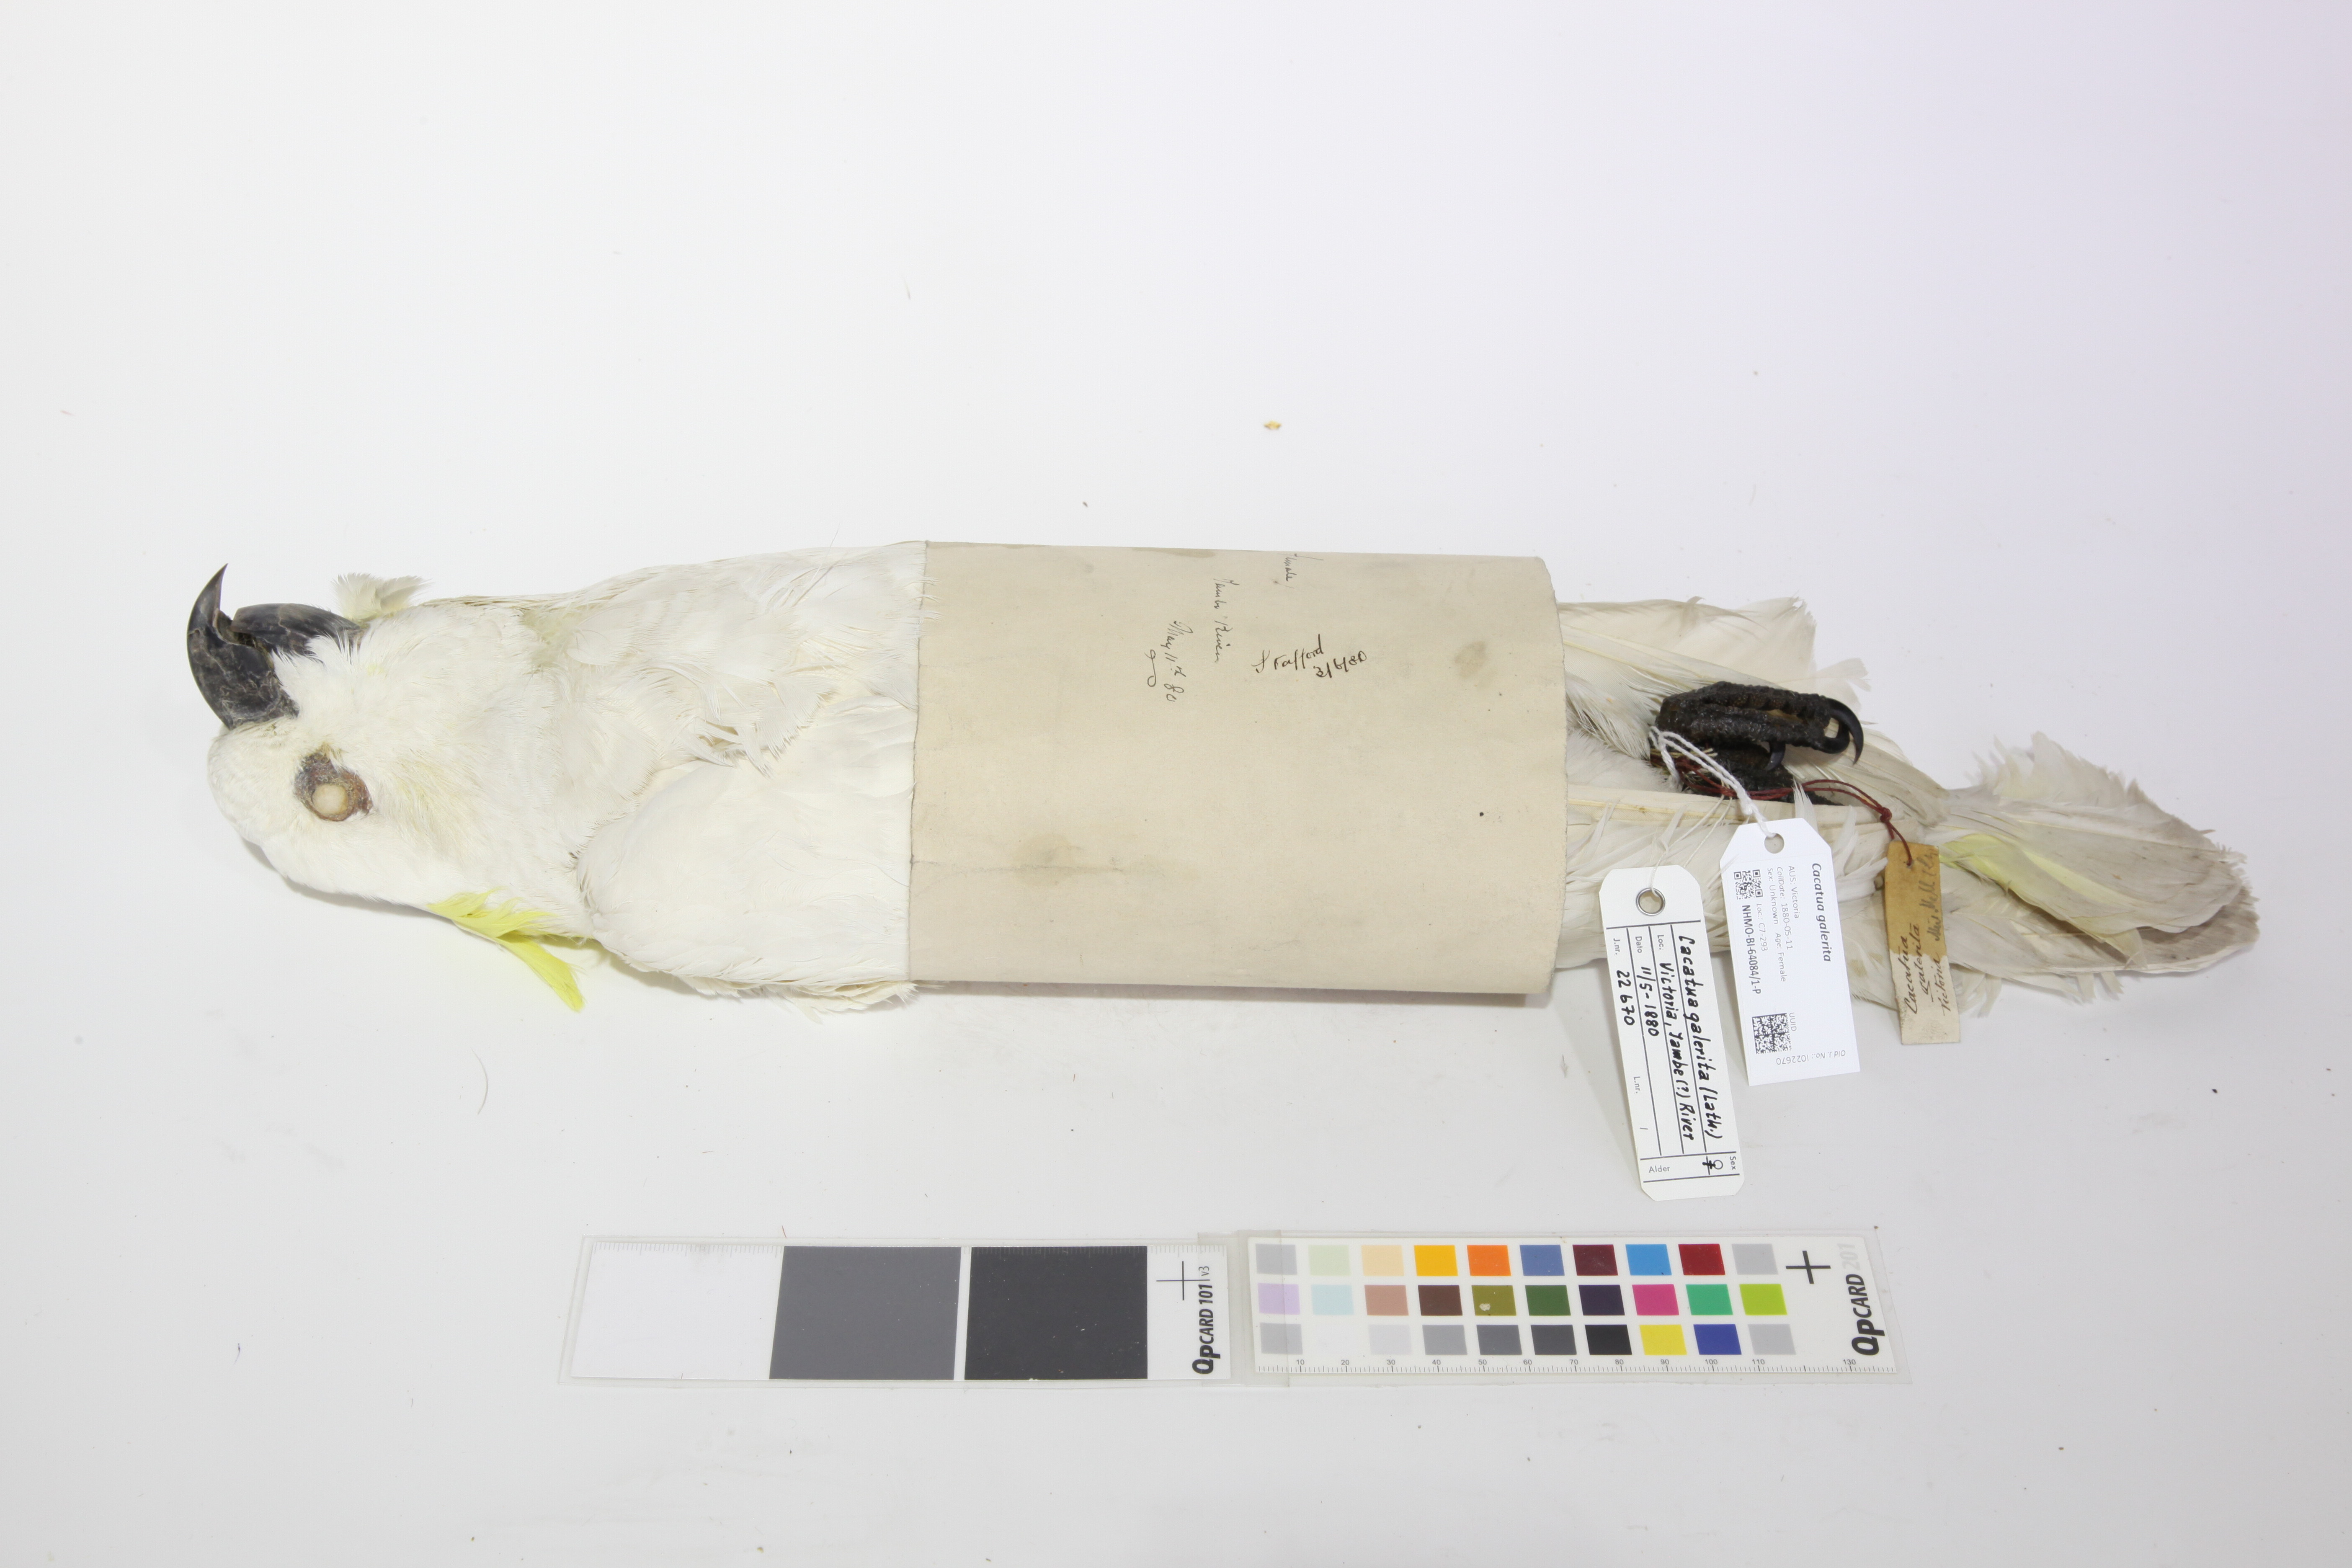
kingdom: Animalia
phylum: Chordata
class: Aves
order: Psittaciformes
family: Psittacidae
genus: Cacatua
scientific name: Cacatua galerita
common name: Sulphur-crested cockatoo
